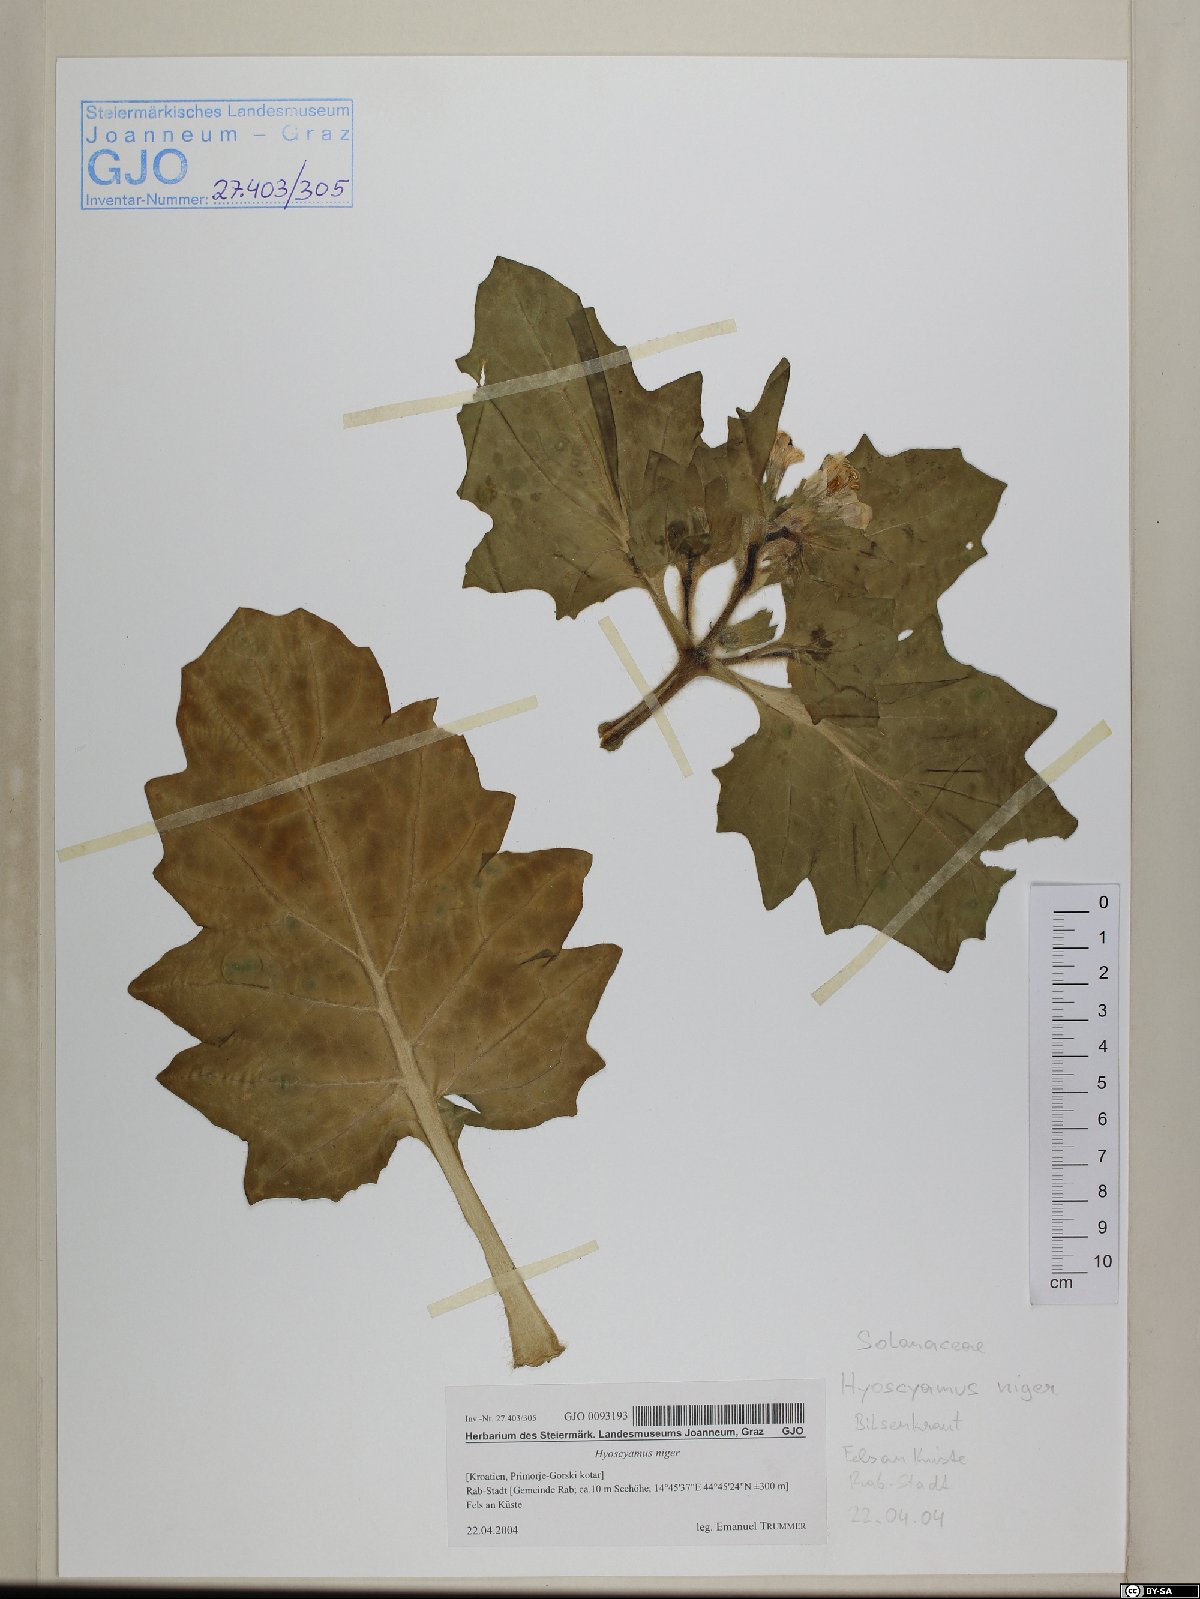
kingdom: Plantae
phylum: Tracheophyta
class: Magnoliopsida
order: Solanales
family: Solanaceae
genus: Hyoscyamus
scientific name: Hyoscyamus niger
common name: Henbane
